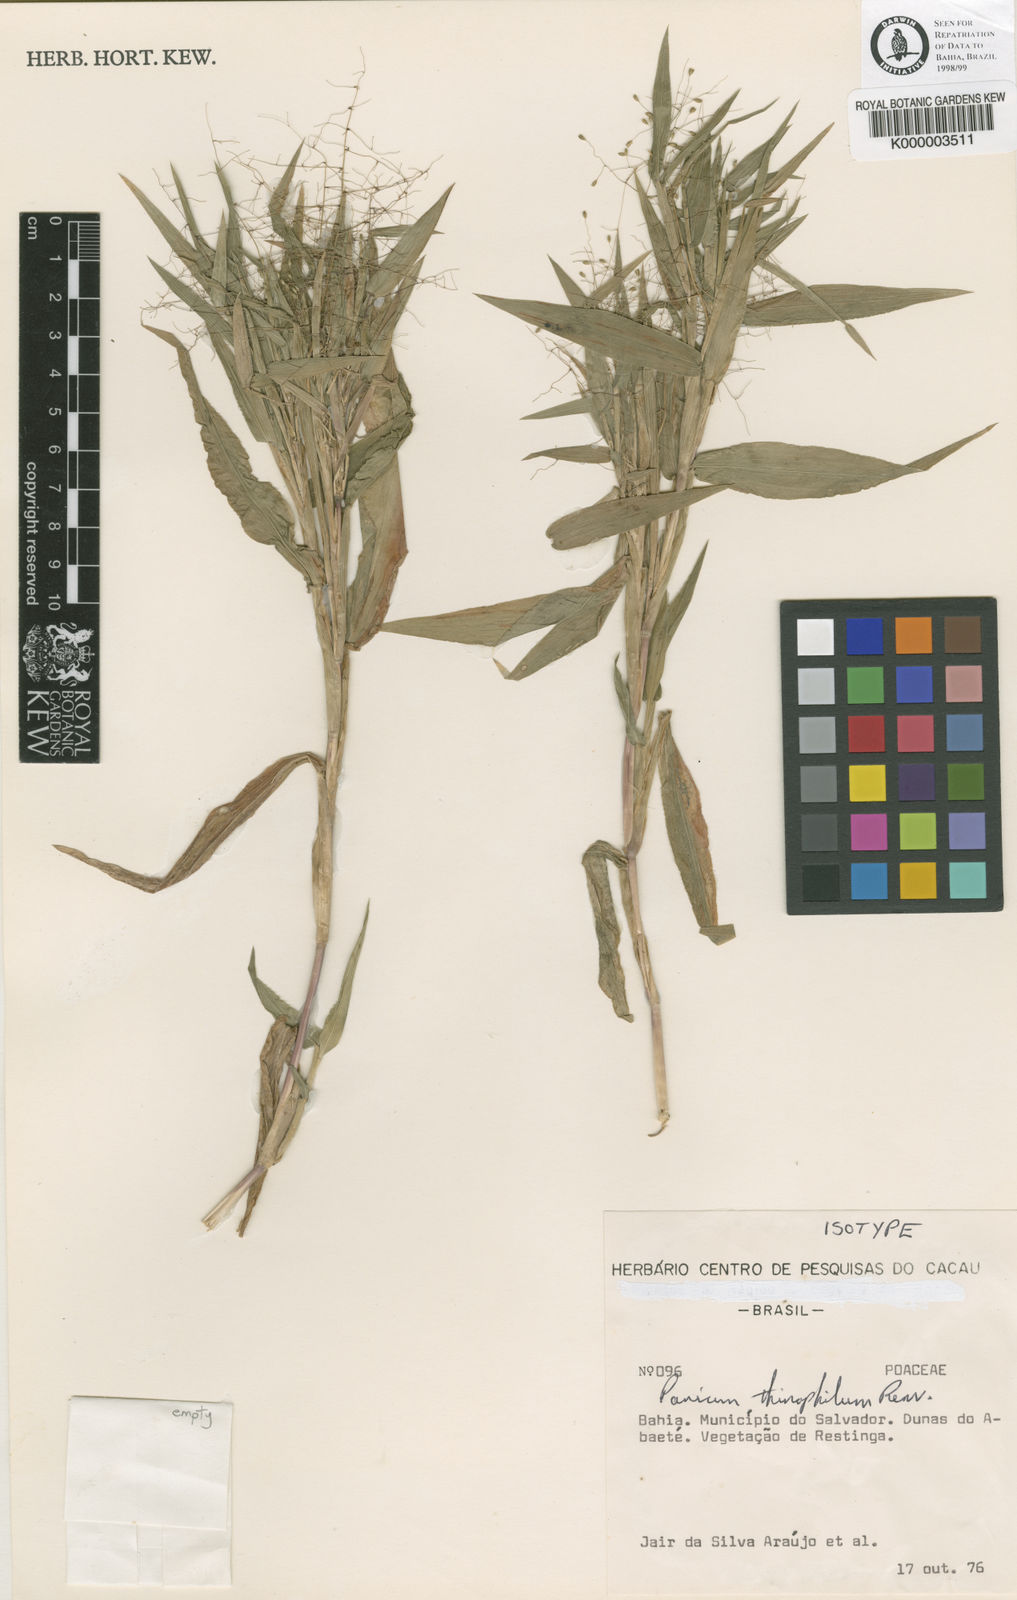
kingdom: Plantae
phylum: Tracheophyta
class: Liliopsida
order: Poales
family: Poaceae
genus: Dichanthelium
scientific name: Dichanthelium aequivaginatum
